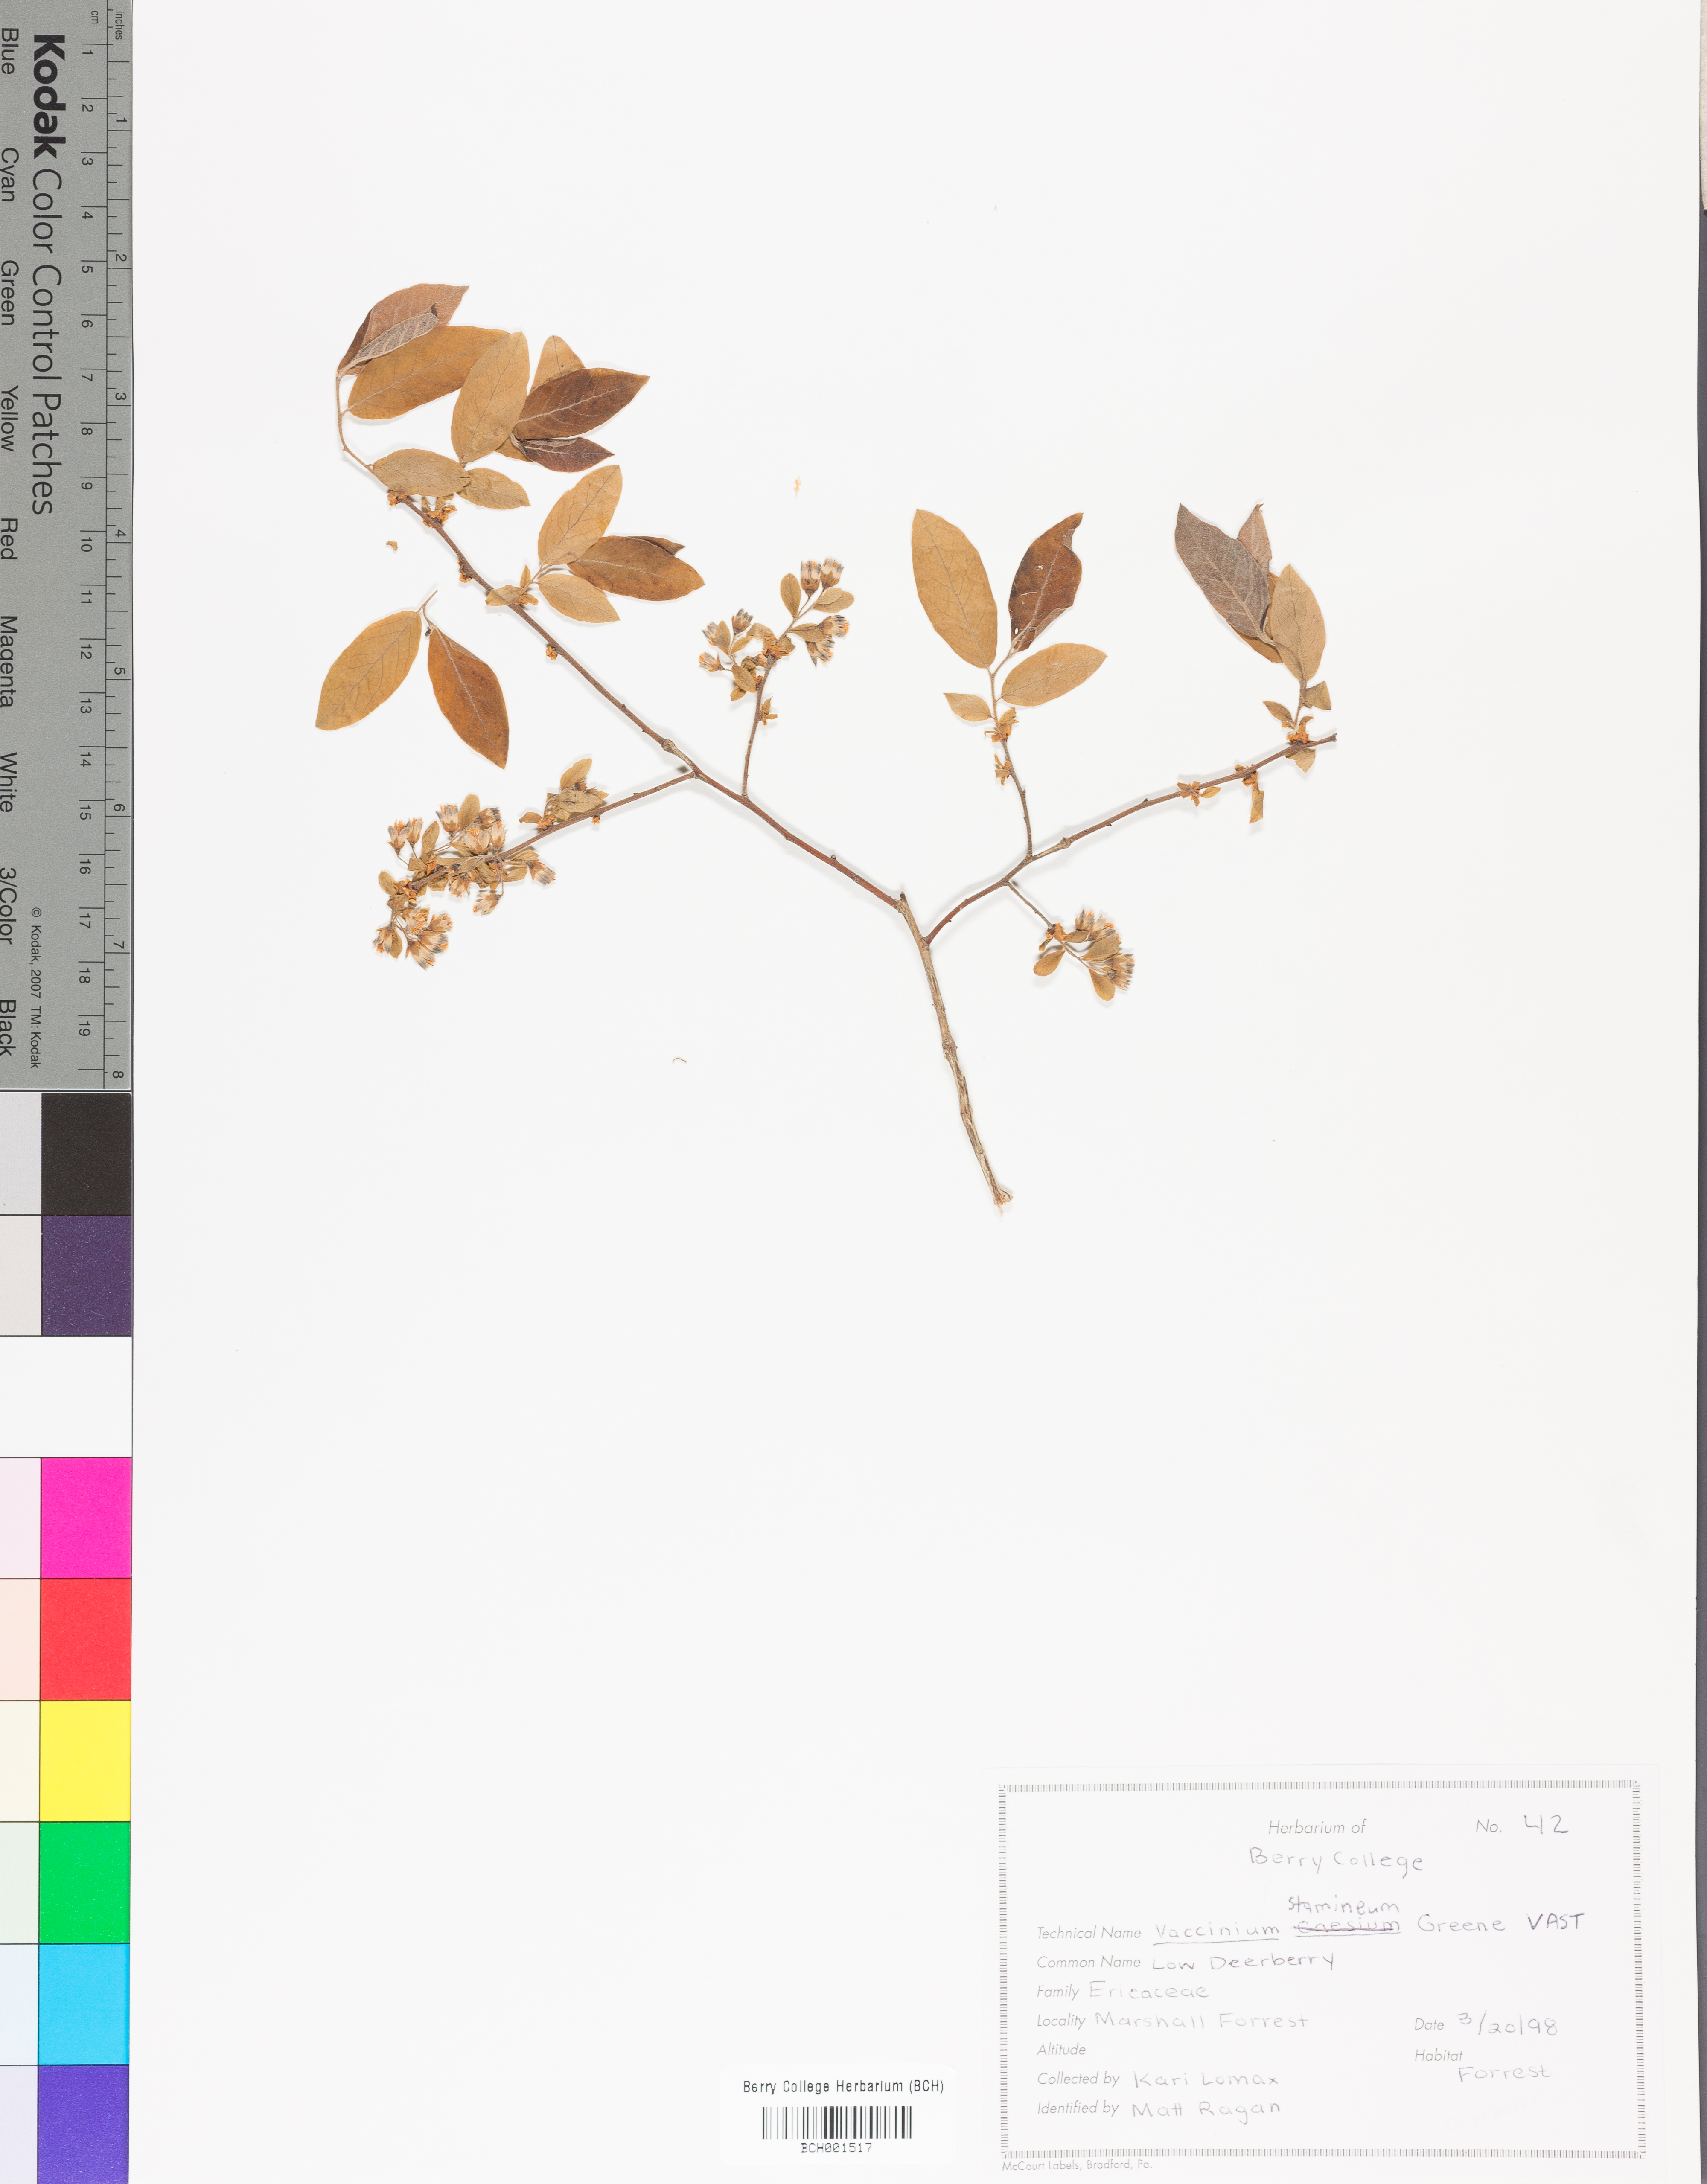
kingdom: Plantae
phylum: Tracheophyta
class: Magnoliopsida
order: Ericales
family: Ericaceae
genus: Vaccinium
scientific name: Vaccinium stamineum
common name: Deerberry
